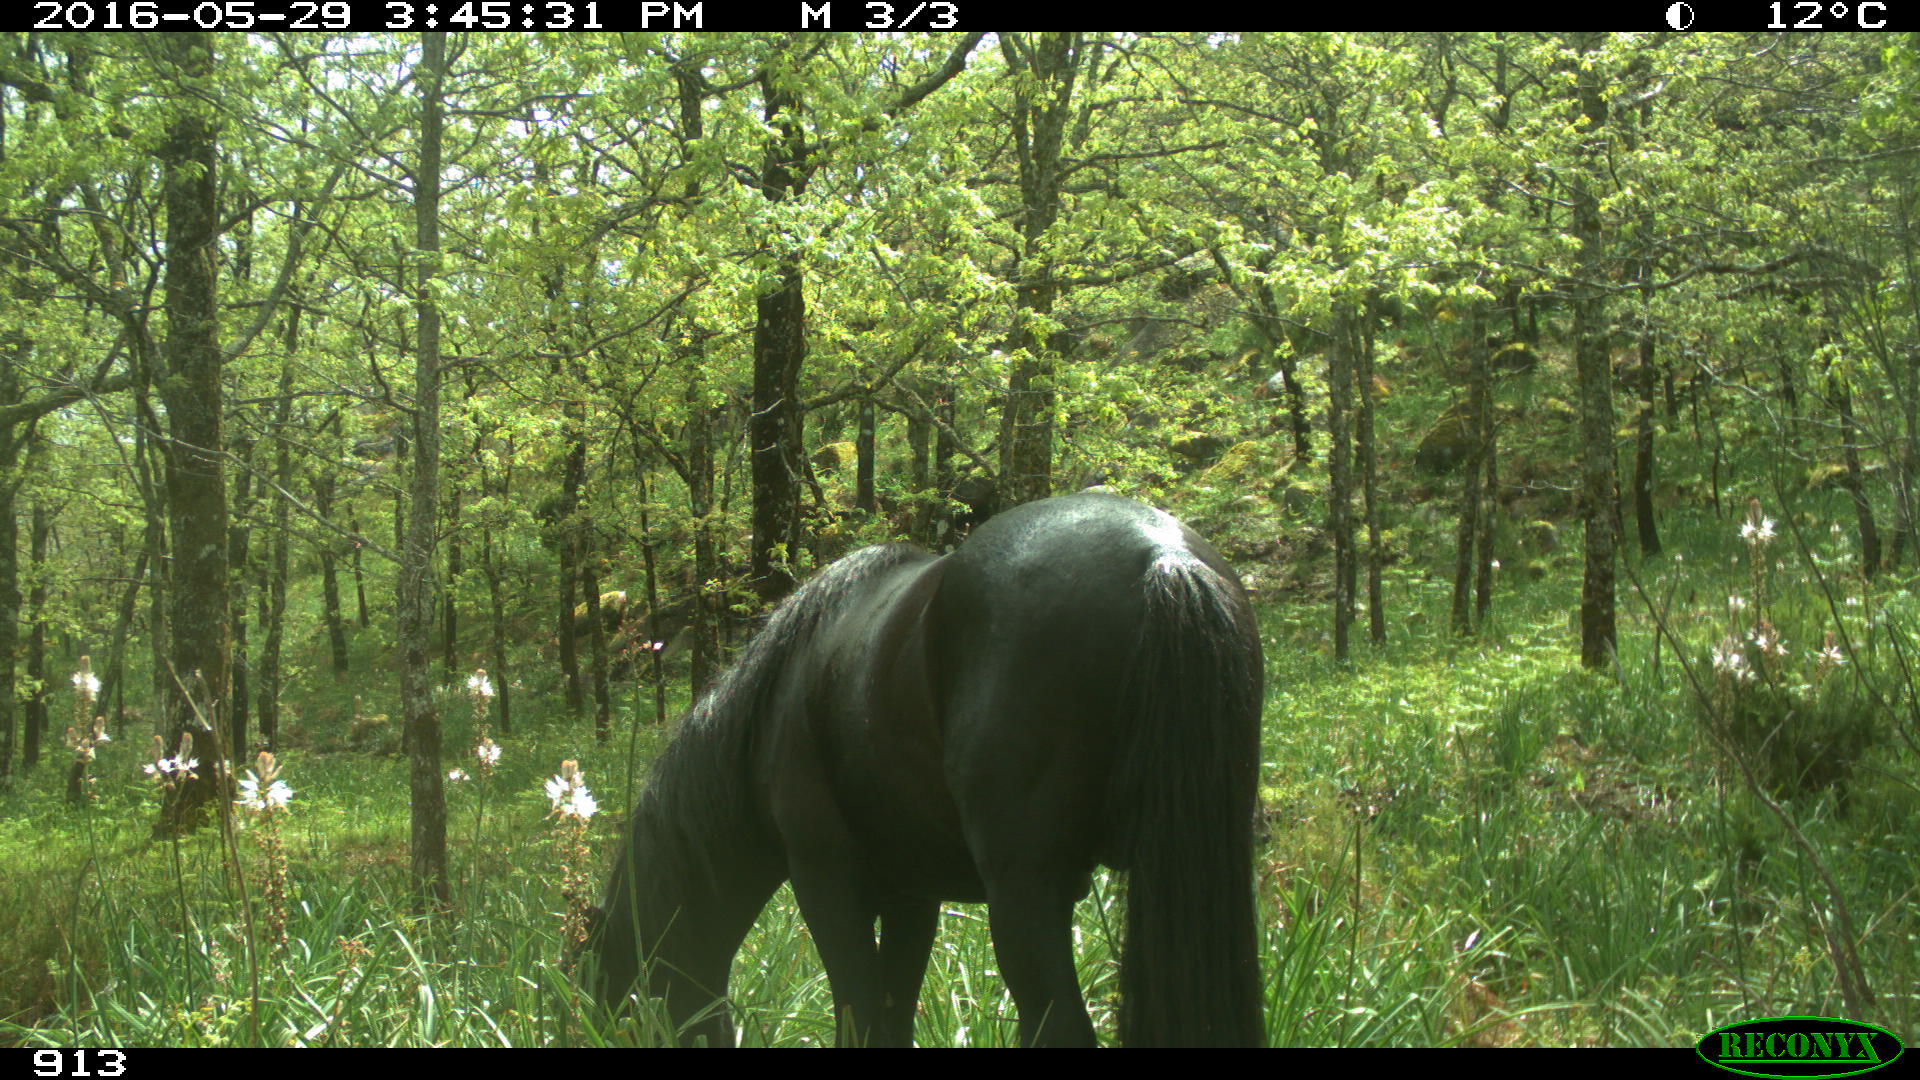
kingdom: Animalia
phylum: Chordata
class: Mammalia
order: Perissodactyla
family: Equidae
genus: Equus
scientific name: Equus caballus
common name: Horse
